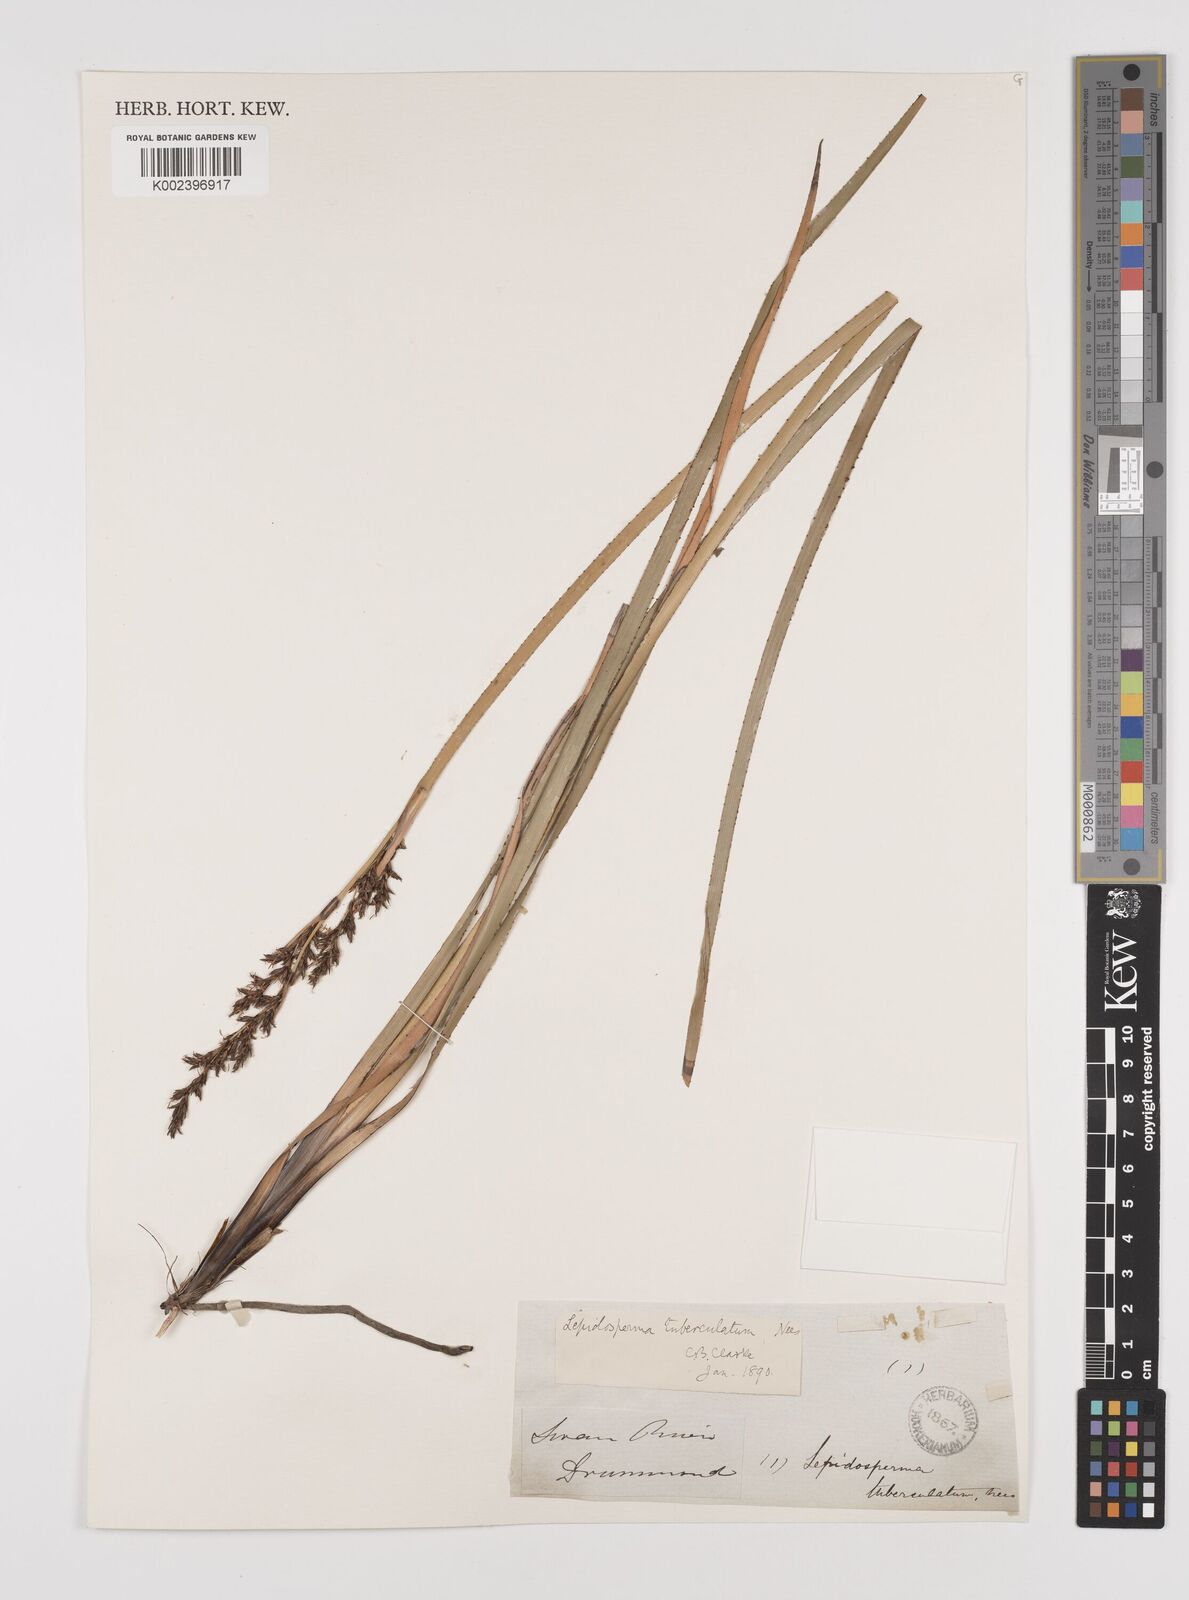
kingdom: Plantae
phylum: Tracheophyta
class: Liliopsida
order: Poales
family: Cyperaceae
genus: Lepidosperma
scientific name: Lepidosperma tuberculatum
